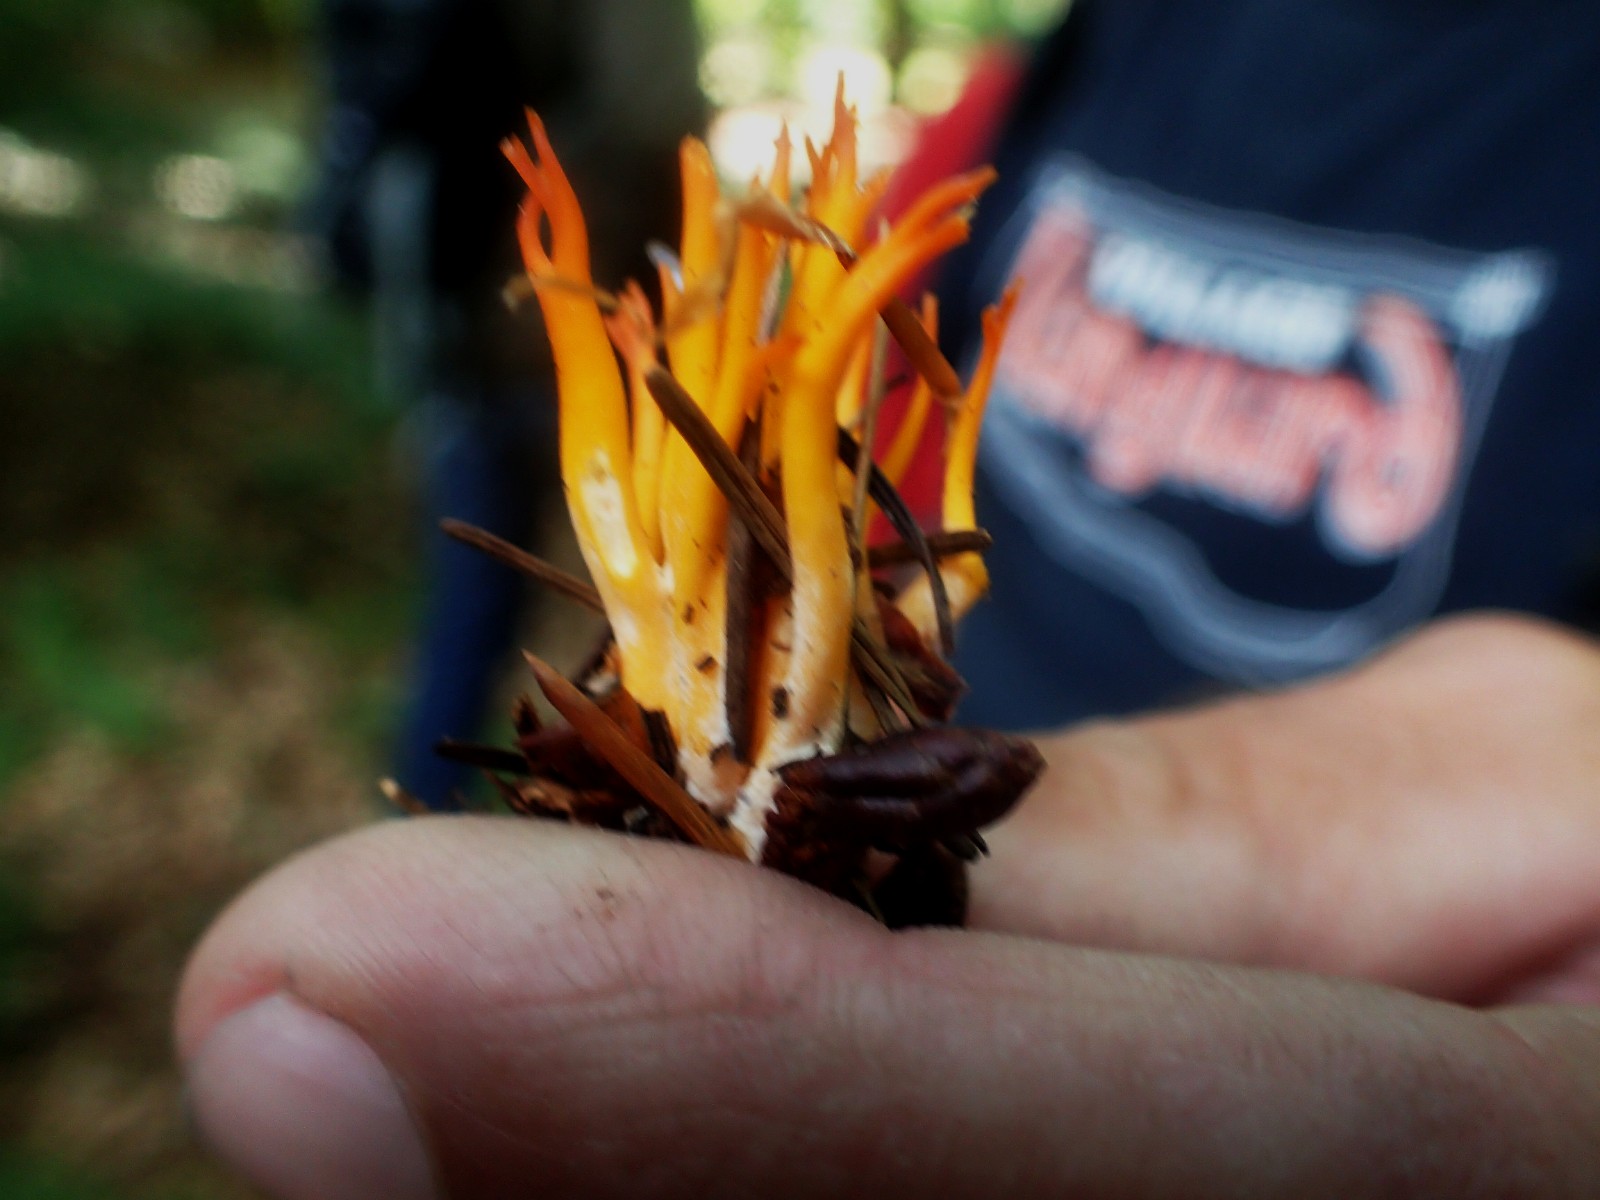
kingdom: Fungi
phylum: Basidiomycota
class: Dacrymycetes
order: Dacrymycetales
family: Dacrymycetaceae
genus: Calocera
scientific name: Calocera viscosa
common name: almindelig guldgaffel
